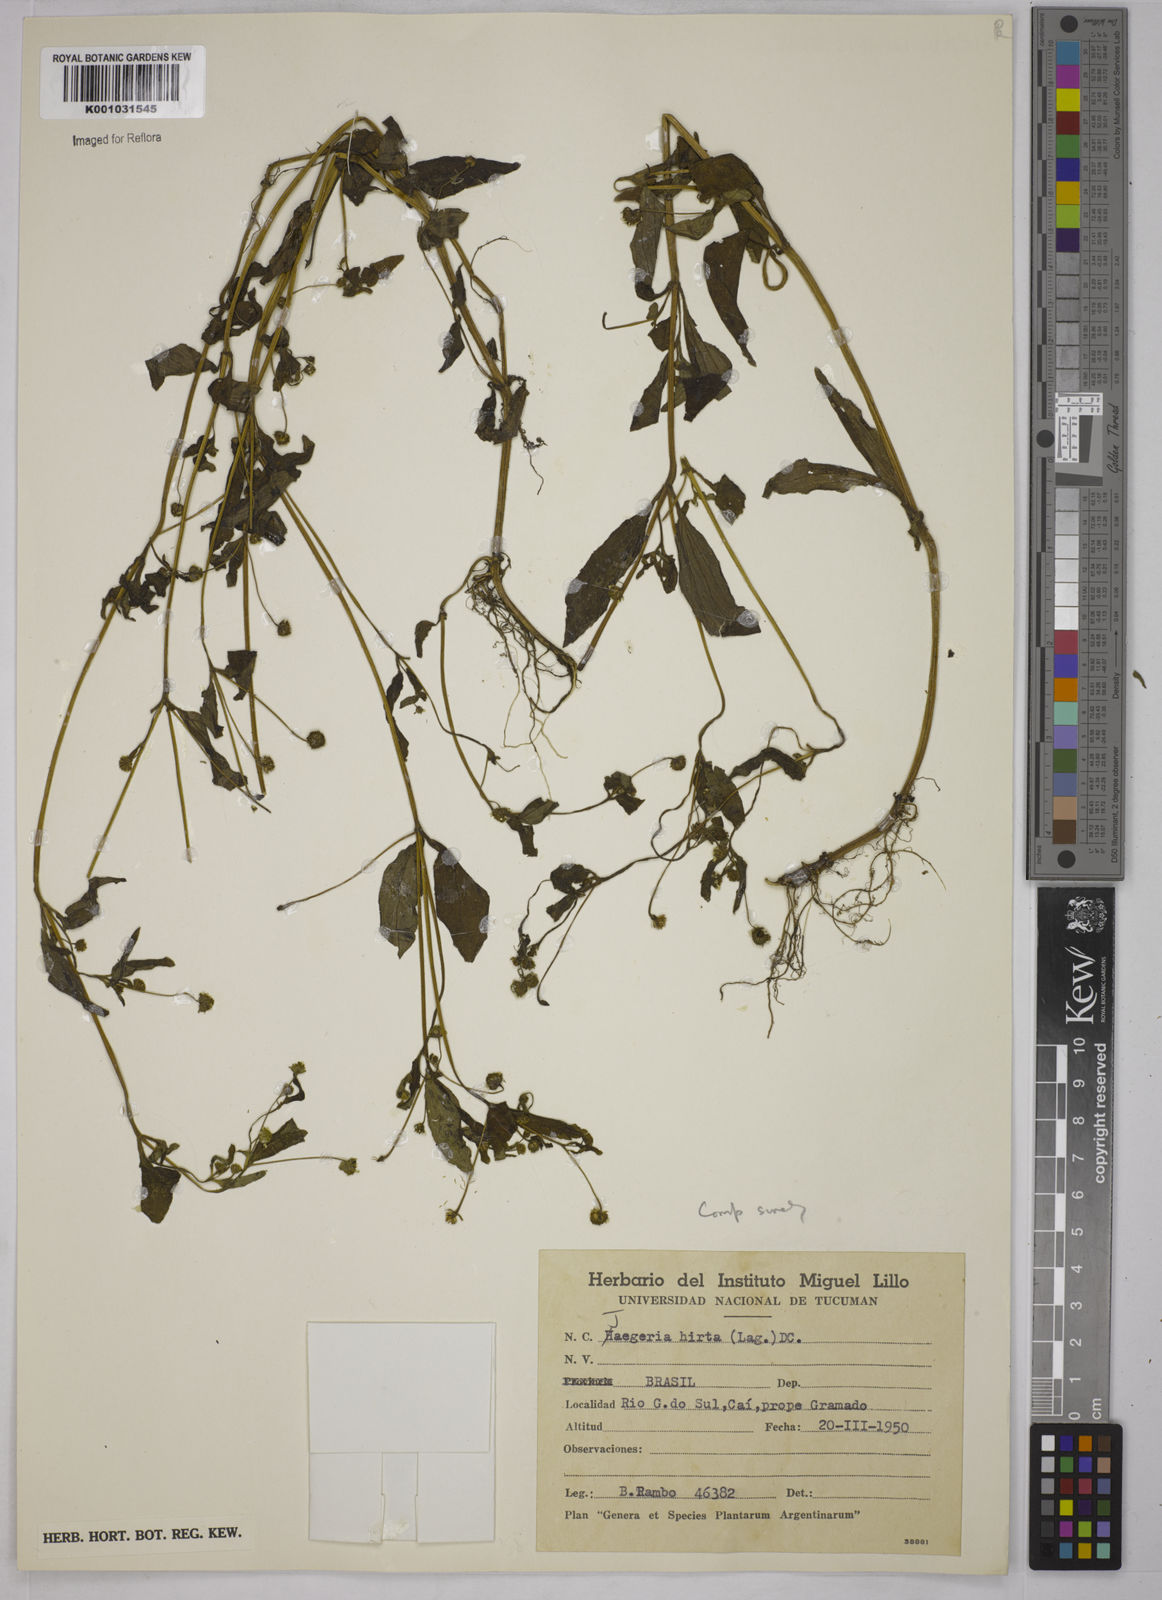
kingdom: Plantae
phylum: Tracheophyta
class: Magnoliopsida
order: Asterales
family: Asteraceae
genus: Jaegeria
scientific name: Jaegeria hirta
